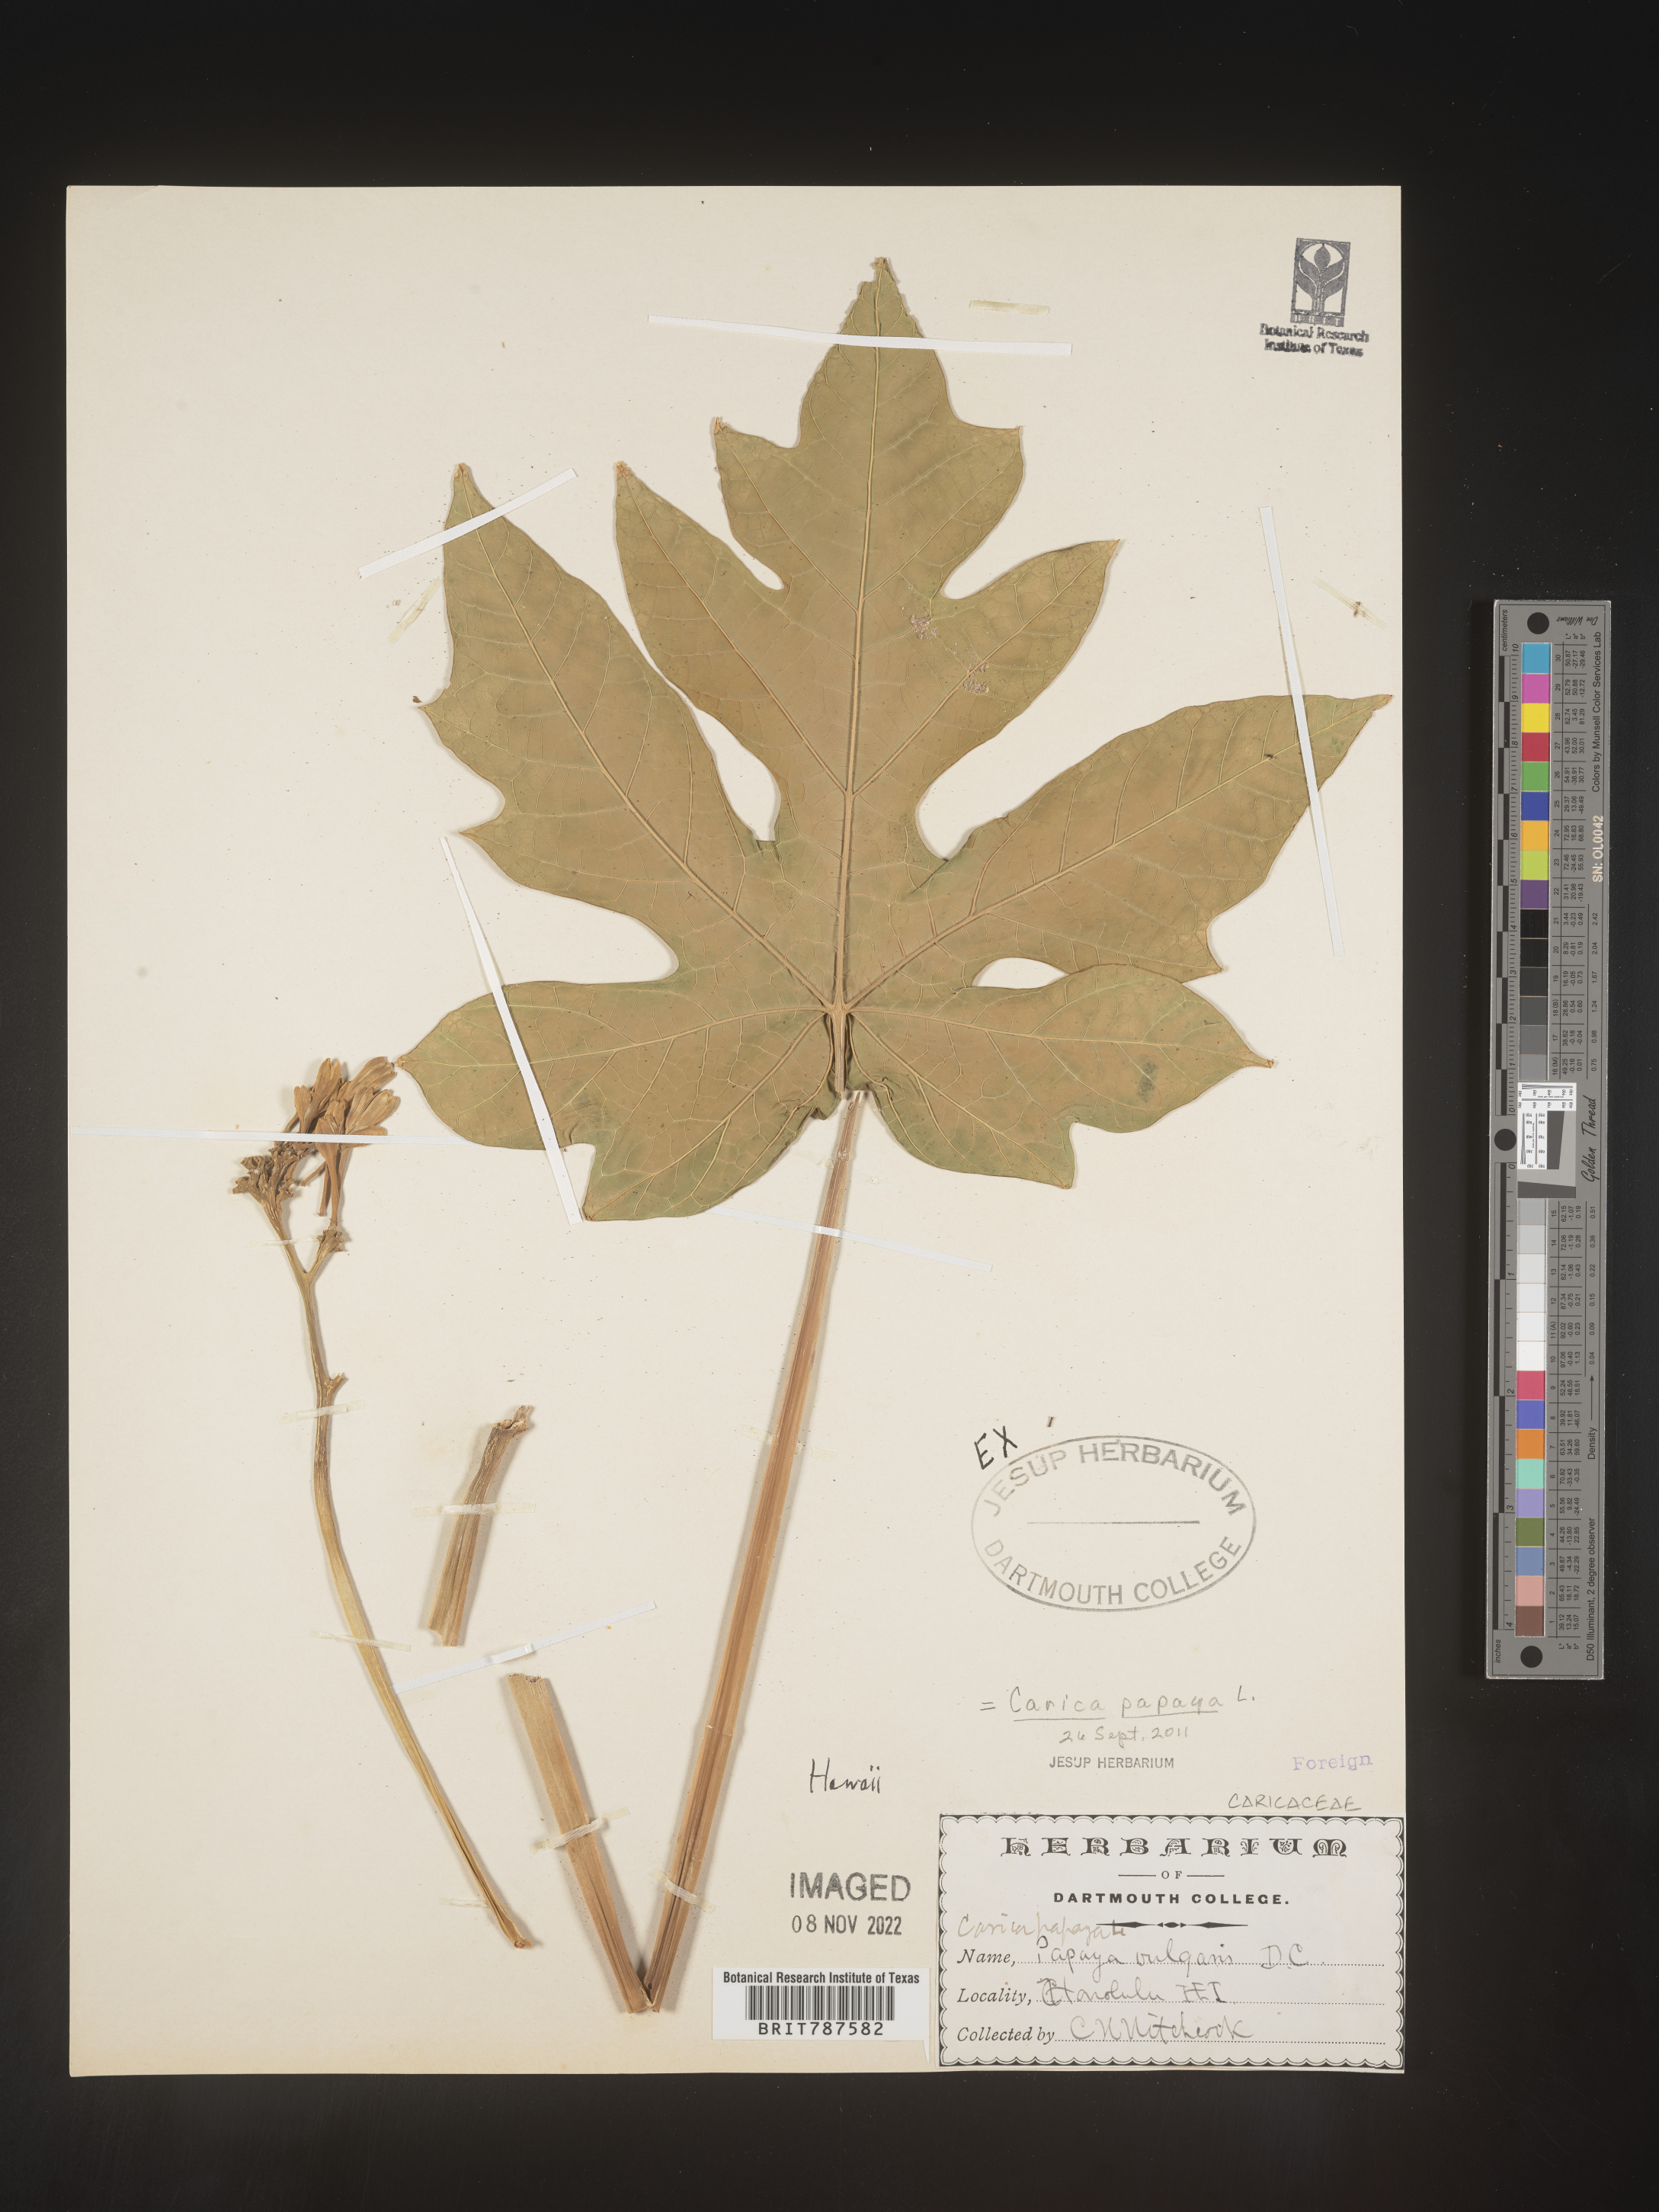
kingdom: Plantae
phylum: Tracheophyta
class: Magnoliopsida
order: Brassicales
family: Caricaceae
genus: Carica
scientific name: Carica
